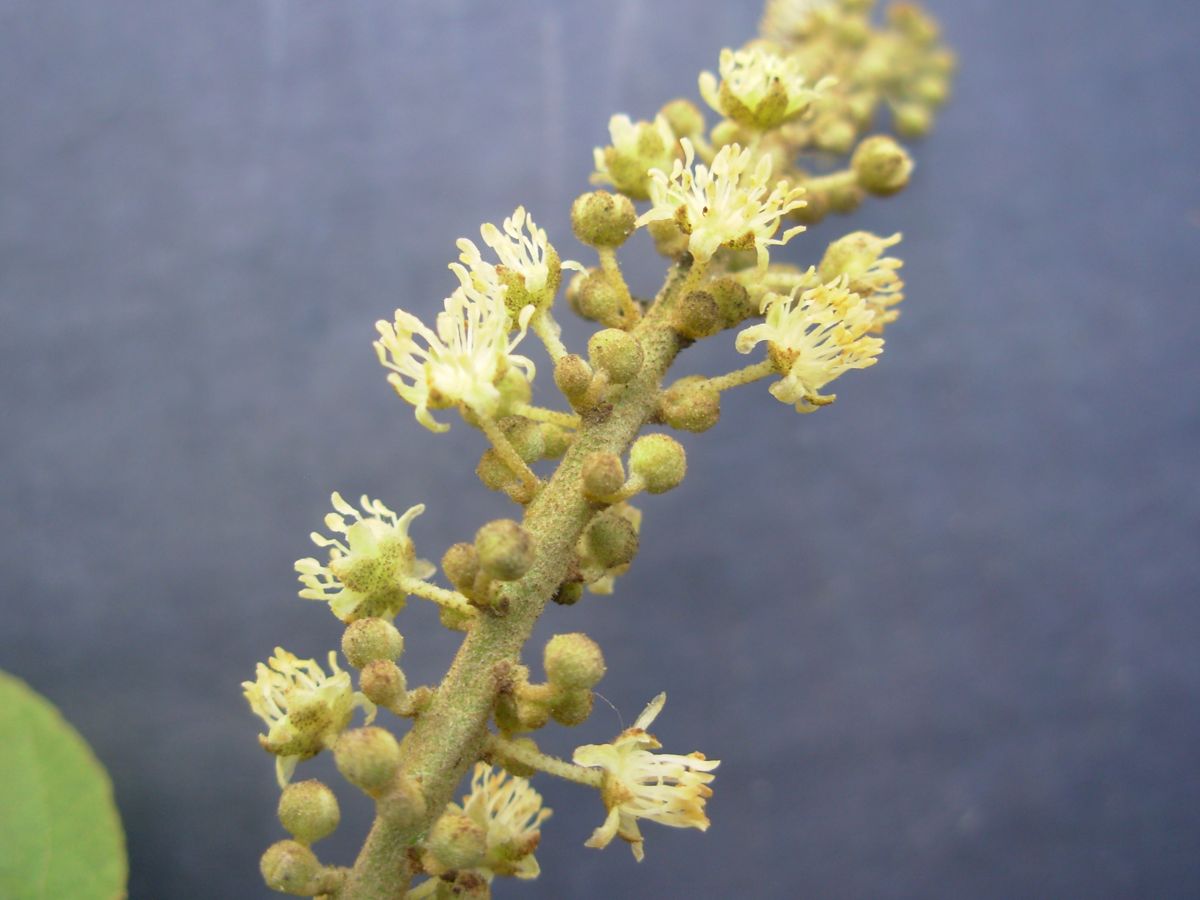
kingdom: Plantae
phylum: Tracheophyta
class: Magnoliopsida
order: Malpighiales
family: Euphorbiaceae
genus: Croton
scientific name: Croton xalapensis
